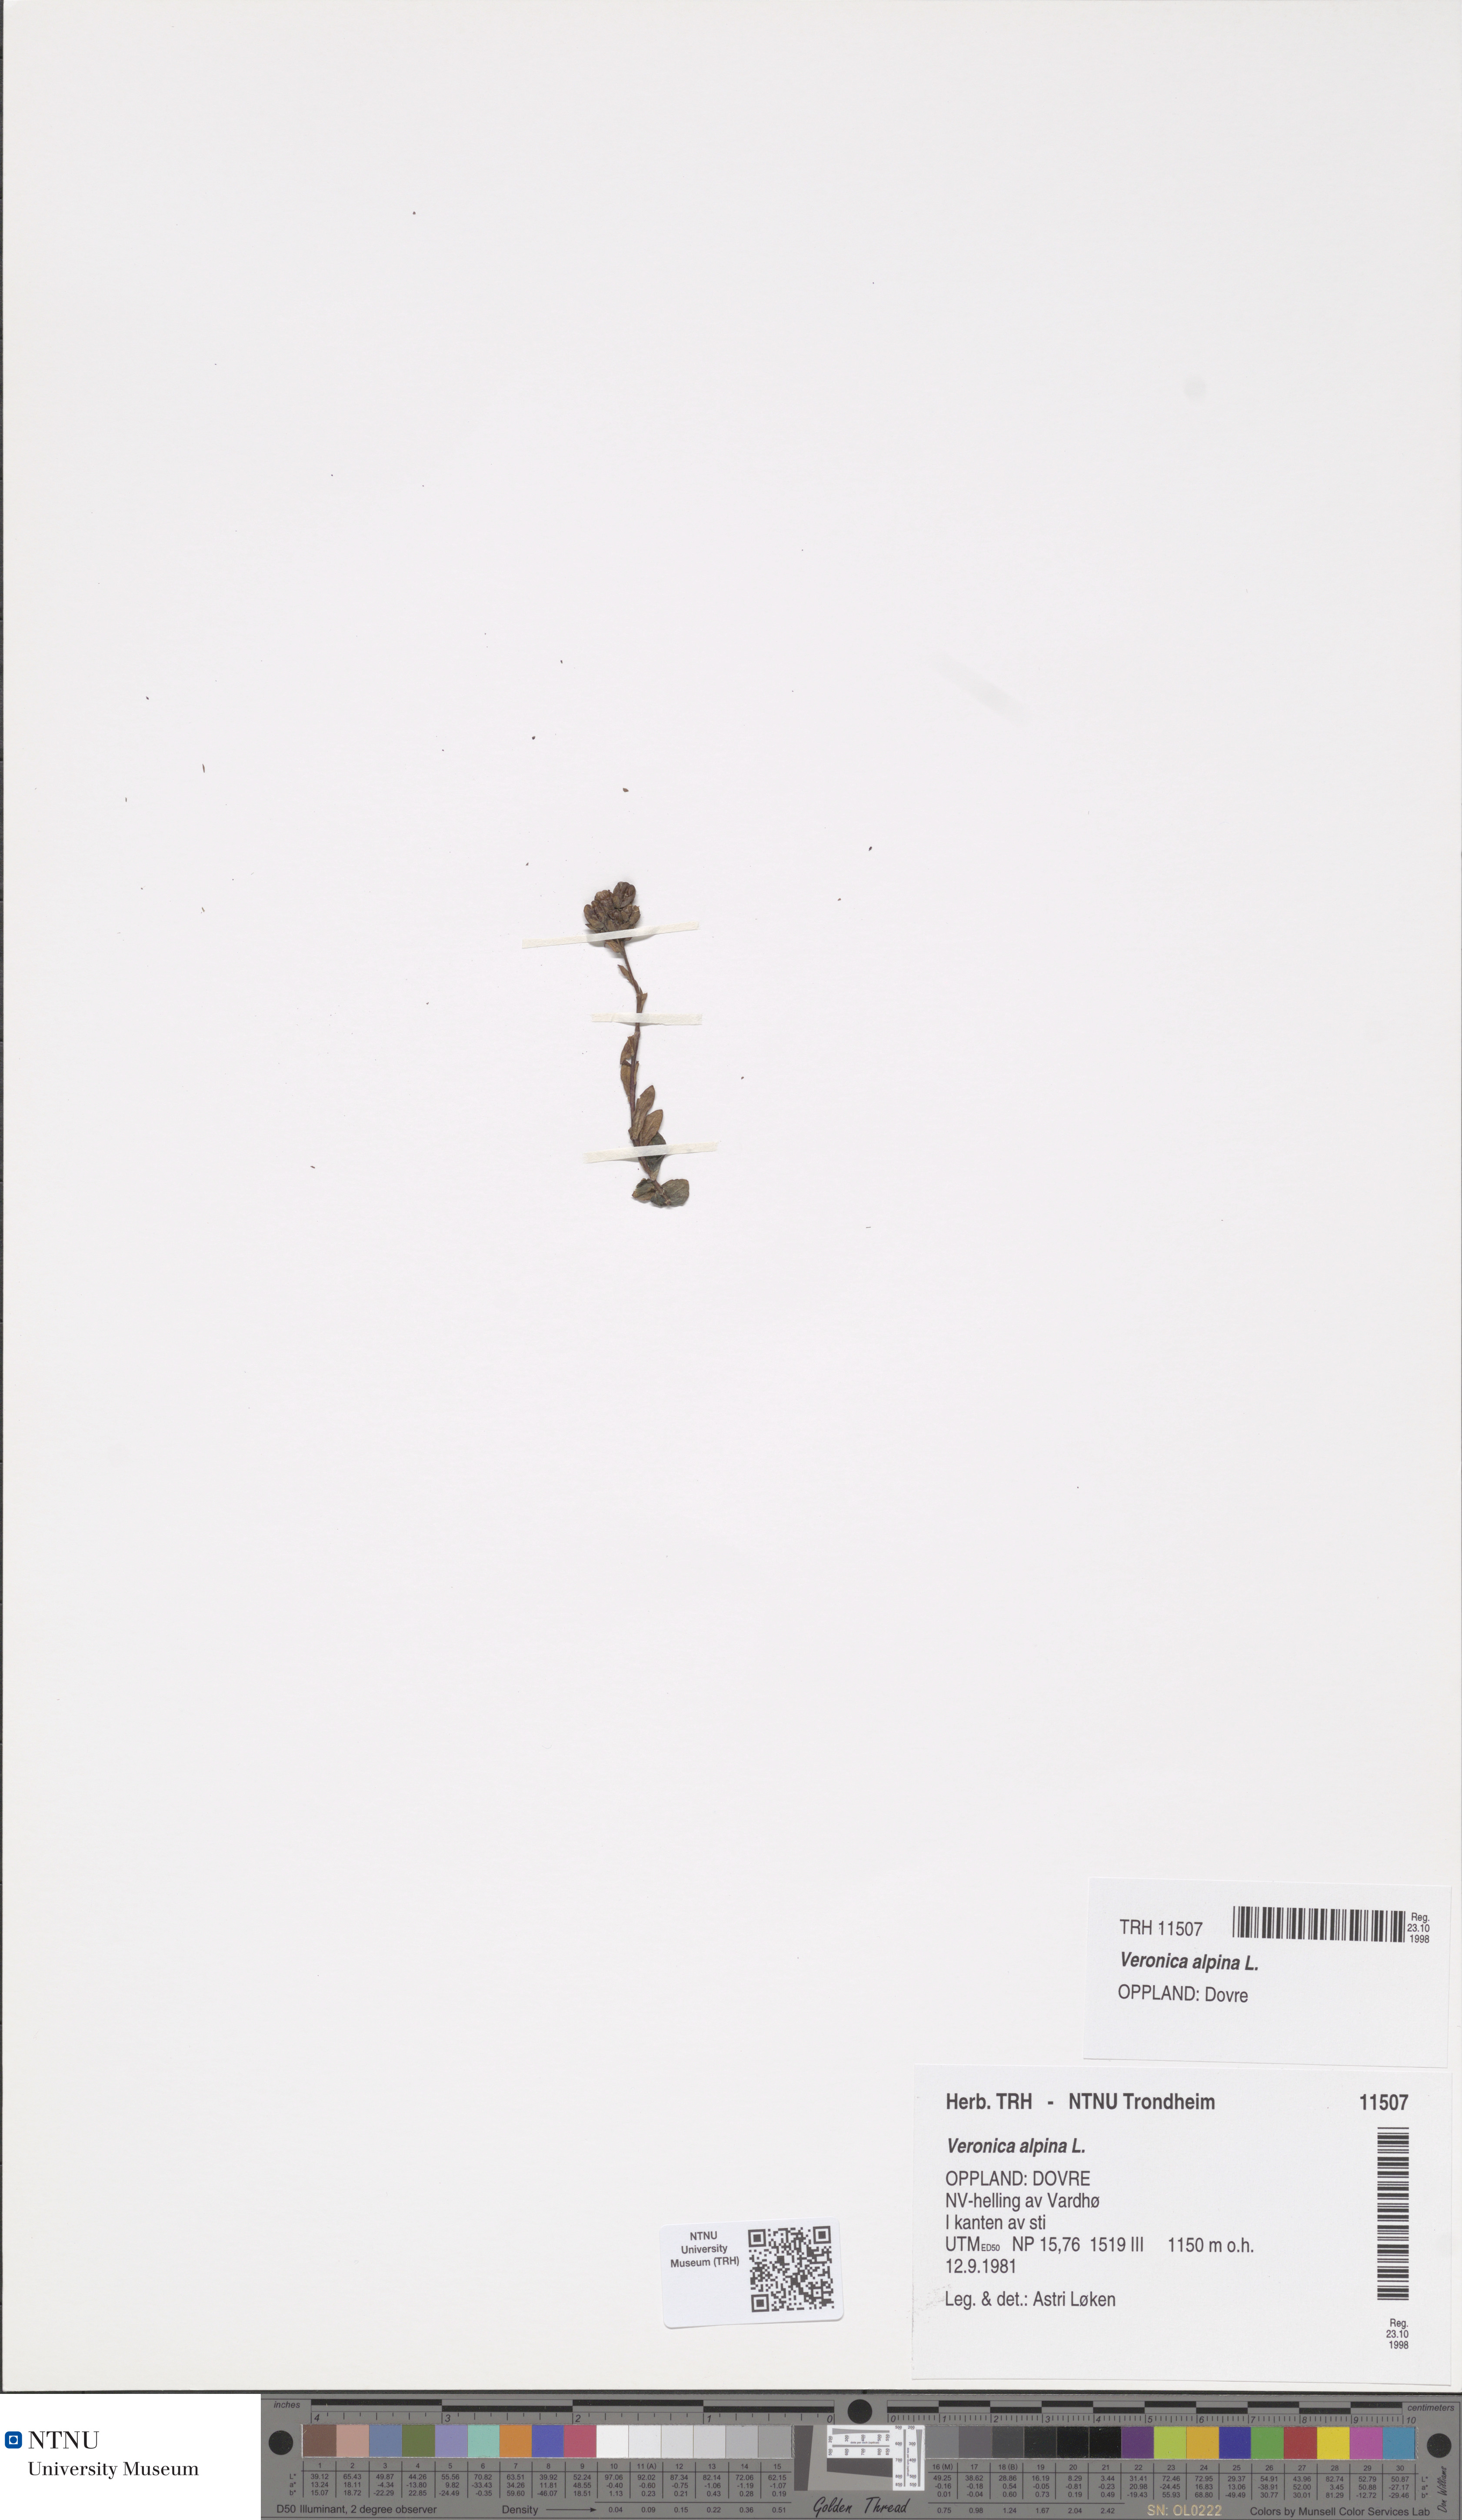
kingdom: Plantae
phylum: Tracheophyta
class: Magnoliopsida
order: Lamiales
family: Plantaginaceae
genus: Veronica
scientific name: Veronica alpina
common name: Alpine speedwell
